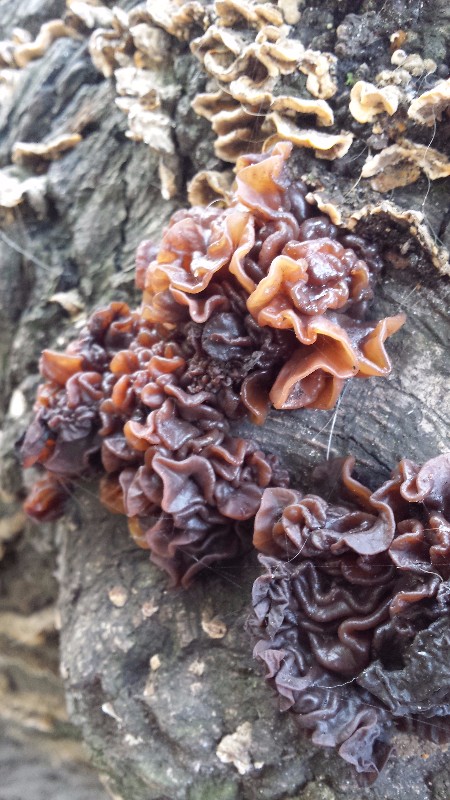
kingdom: Fungi
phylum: Basidiomycota
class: Tremellomycetes
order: Tremellales
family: Tremellaceae
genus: Phaeotremella
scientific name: Phaeotremella frondosa
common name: kæmpe-bævresvamp
